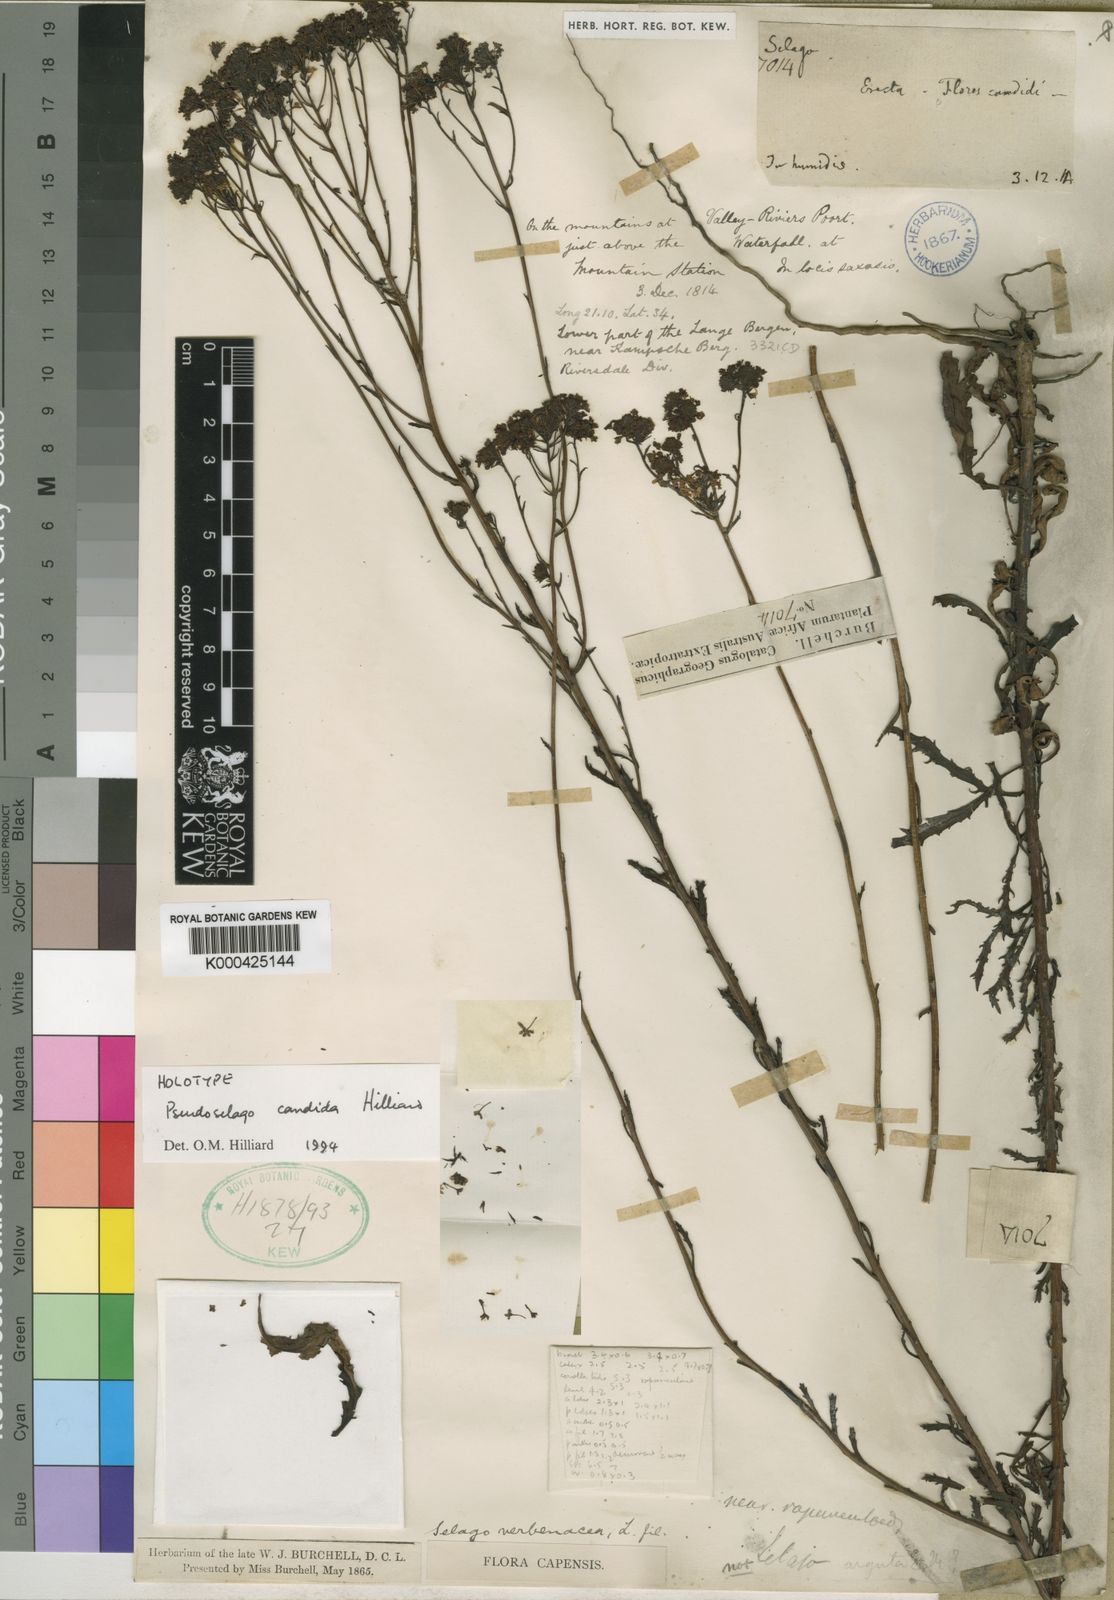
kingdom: Plantae
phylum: Tracheophyta
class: Magnoliopsida
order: Lamiales
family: Scrophulariaceae
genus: Pseudoselago
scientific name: Pseudoselago candida
